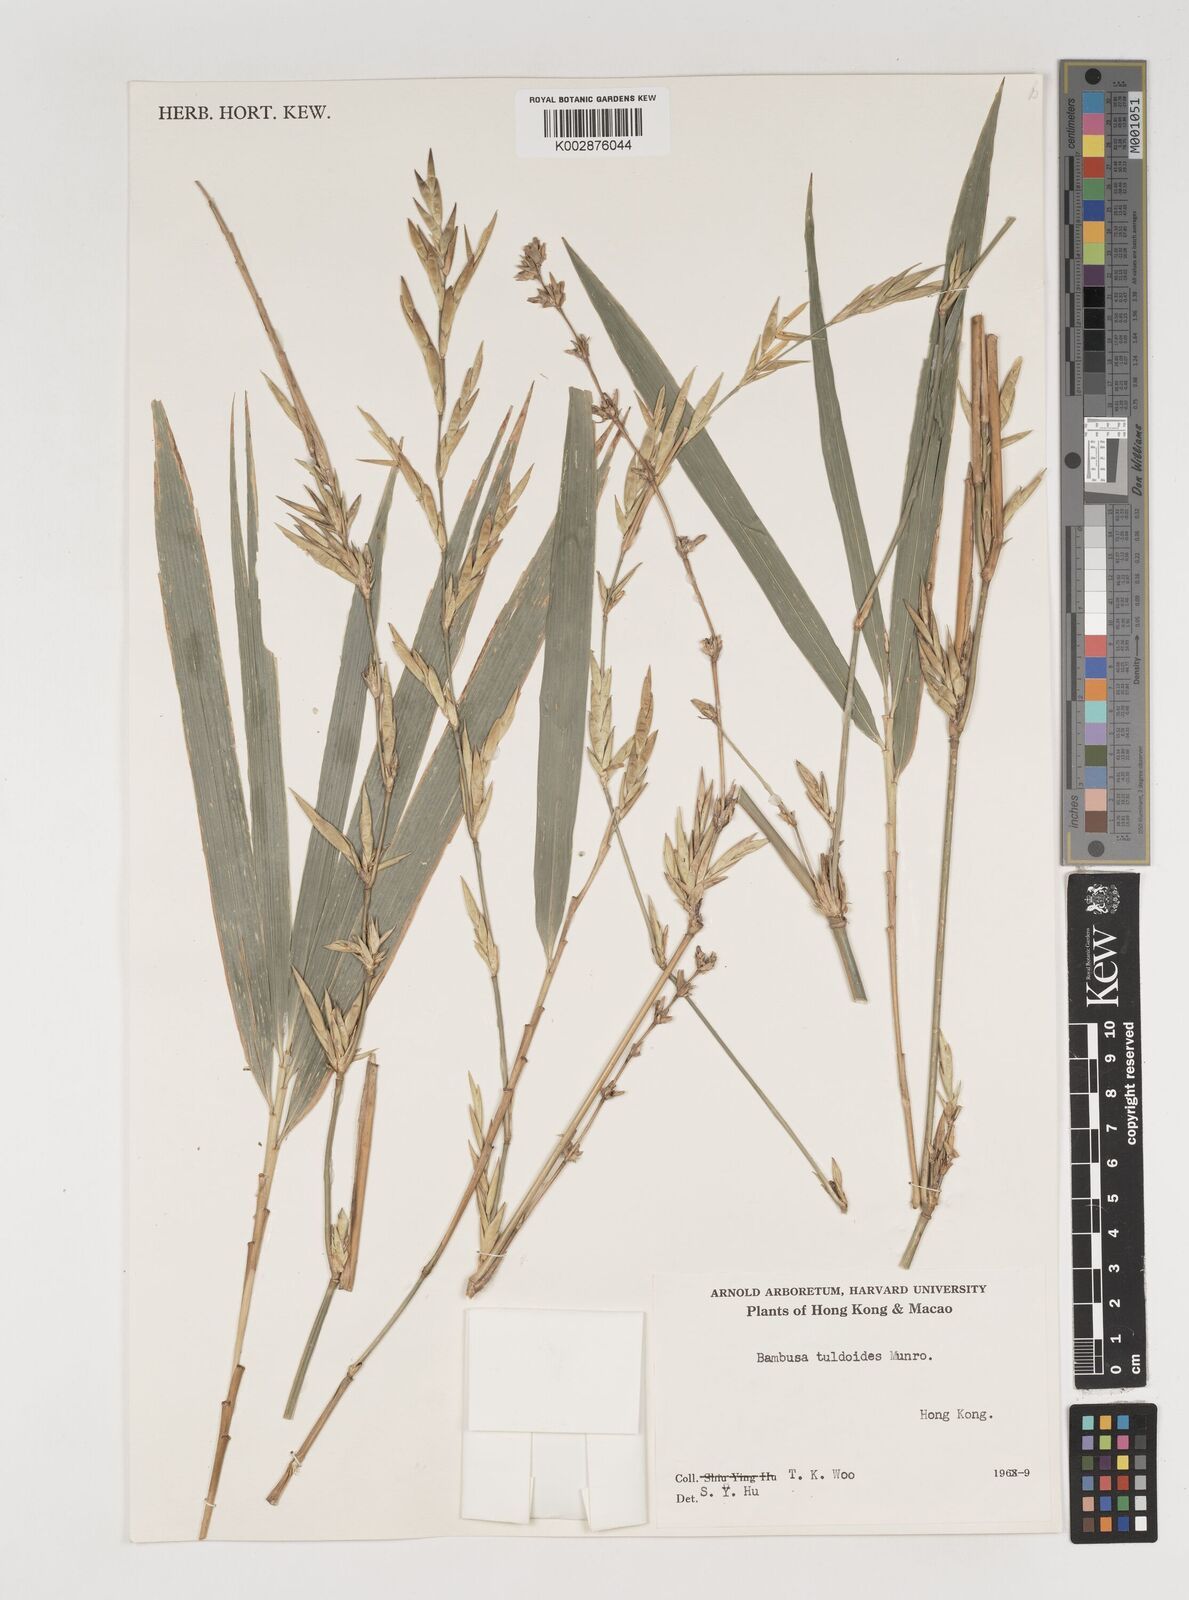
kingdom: Plantae
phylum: Tracheophyta
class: Liliopsida
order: Poales
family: Poaceae
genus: Bambusa
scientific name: Bambusa tuldoides
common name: Verdant bamboo
